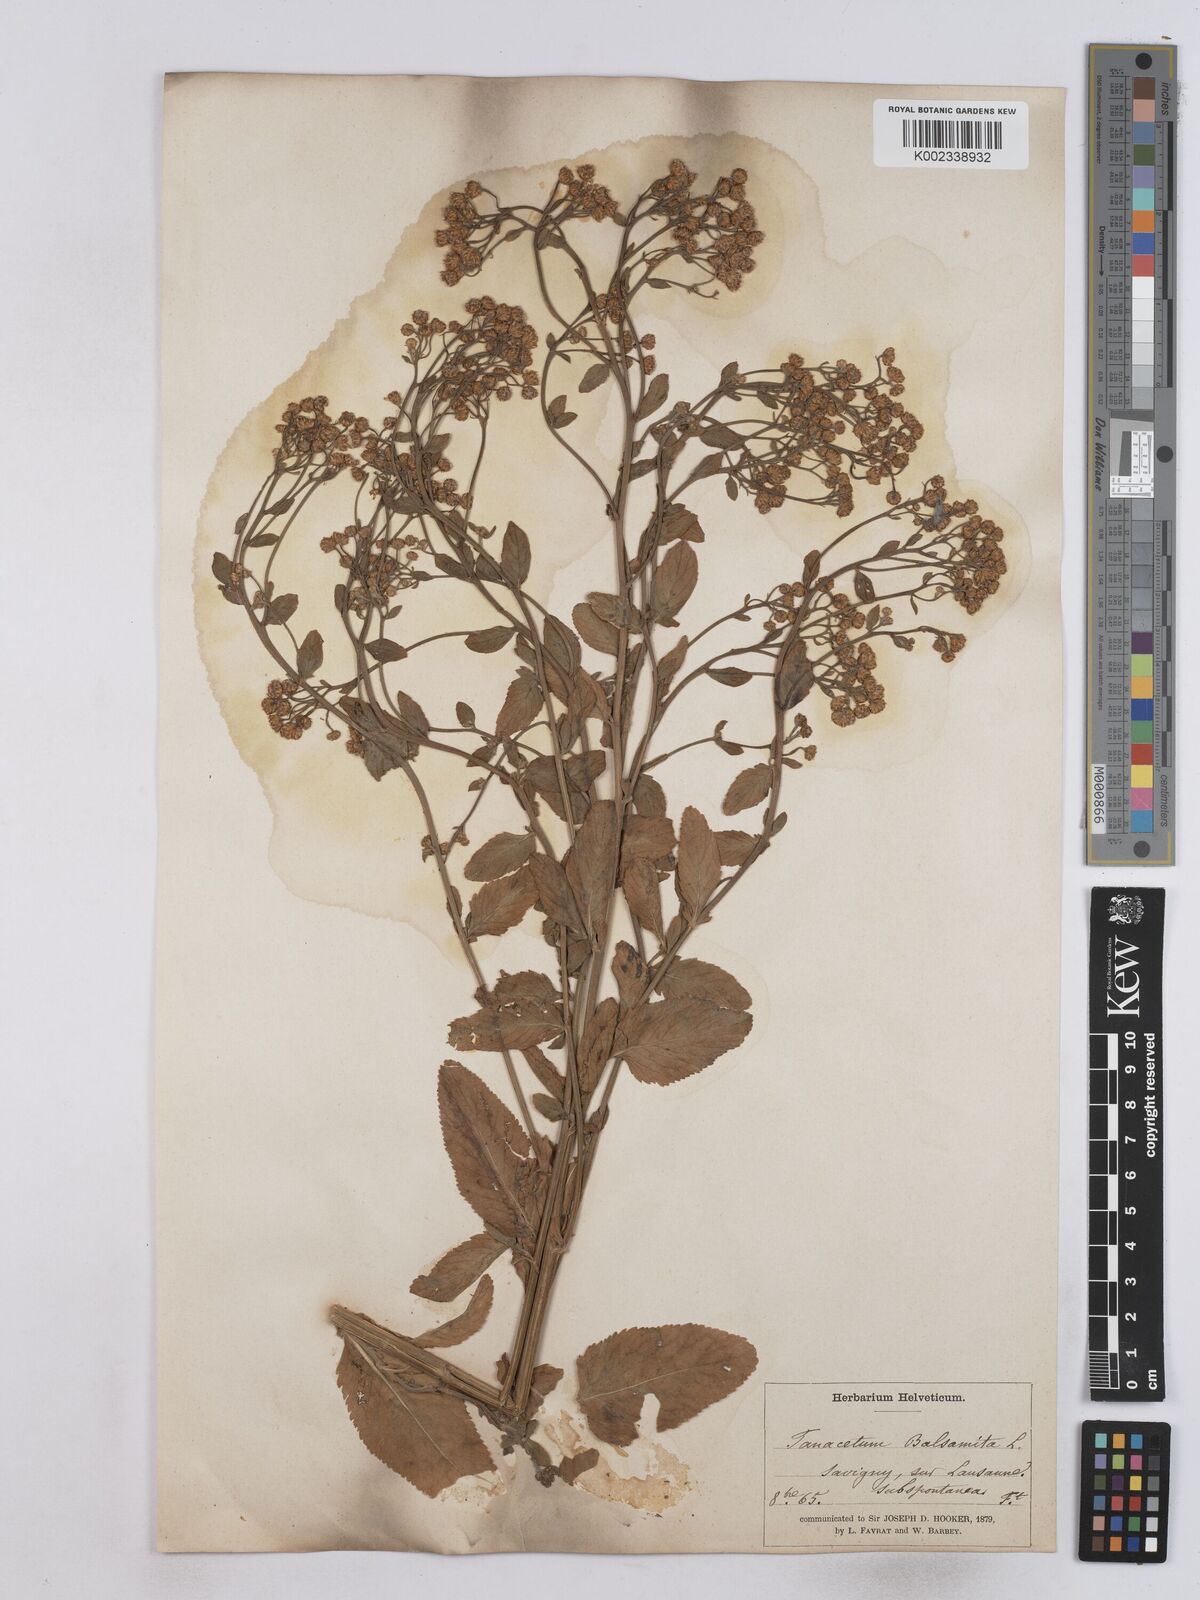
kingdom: Plantae
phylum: Tracheophyta
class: Magnoliopsida
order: Asterales
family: Asteraceae
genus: Tanacetum
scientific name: Tanacetum balsamita
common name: Costmary
